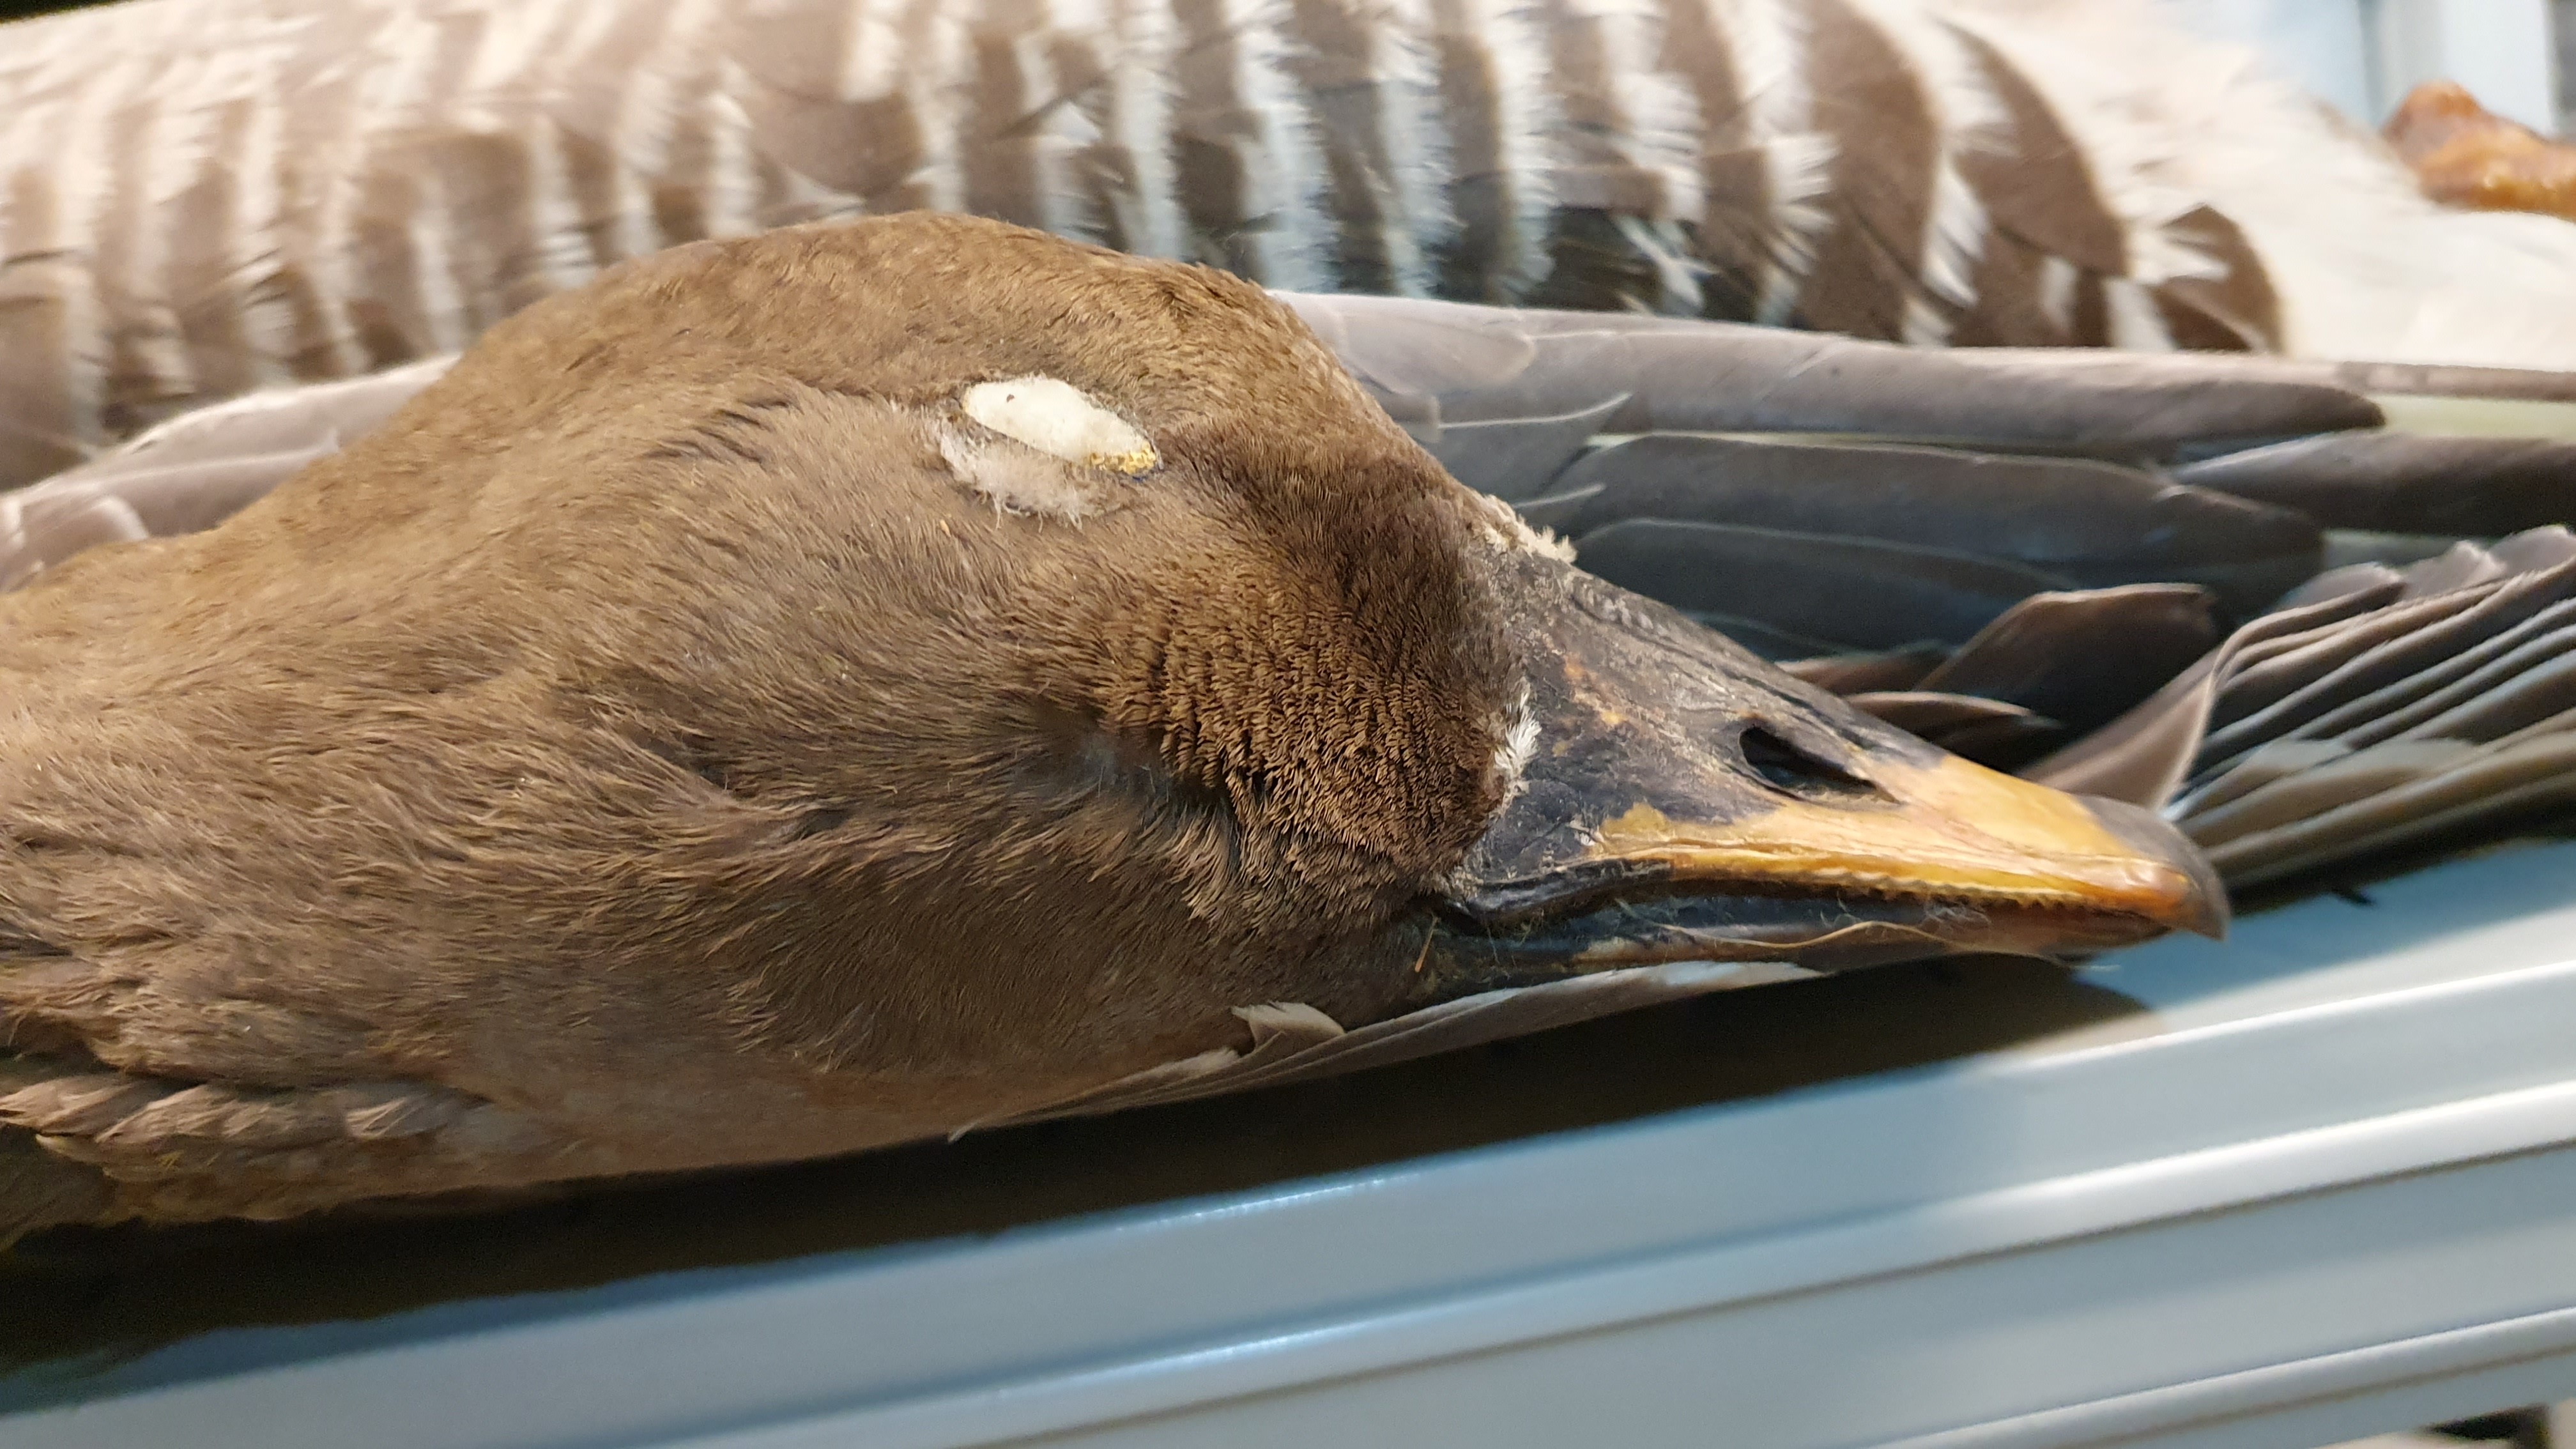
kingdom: Animalia
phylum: Chordata
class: Aves
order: Anseriformes
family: Anatidae
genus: Anser
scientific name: Anser fabalis
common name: Bean goose
